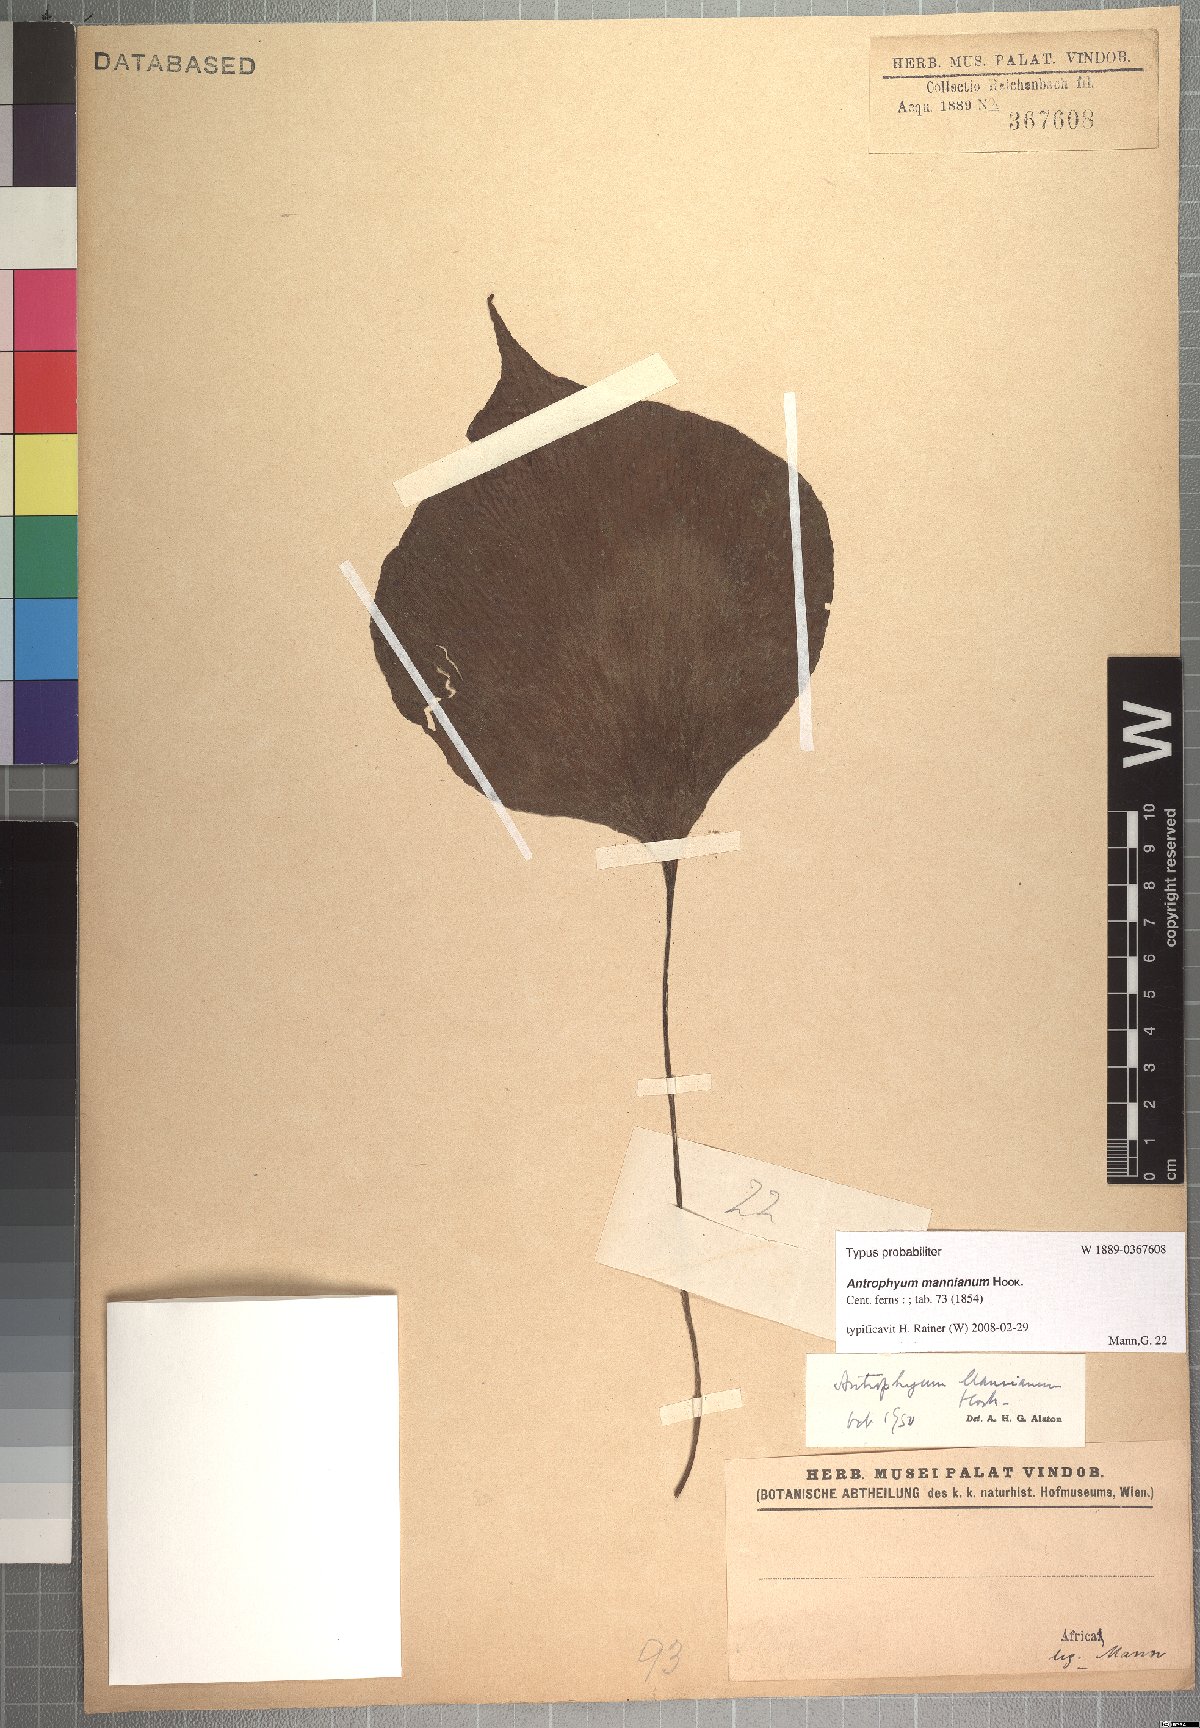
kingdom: Plantae
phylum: Tracheophyta
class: Polypodiopsida
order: Polypodiales
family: Pteridaceae
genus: Antrophyopsis
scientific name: Antrophyopsis manniana
